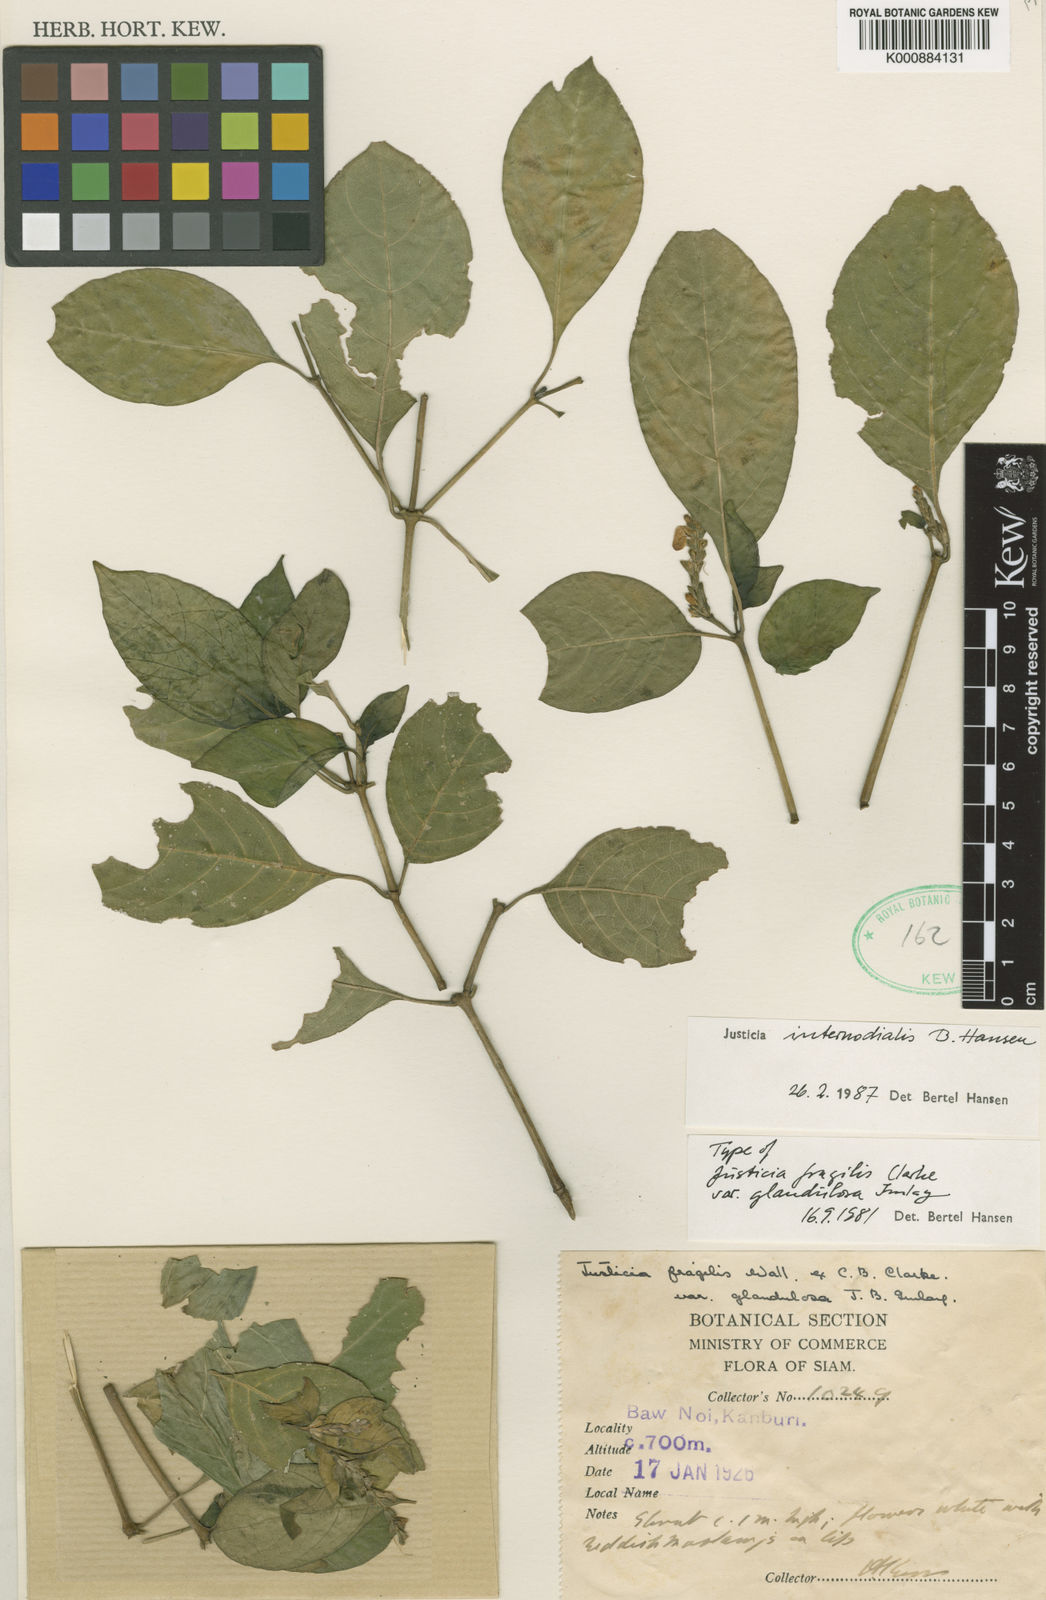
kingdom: Plantae
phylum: Tracheophyta
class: Magnoliopsida
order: Lamiales
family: Acanthaceae
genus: Justicia
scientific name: Justicia internodialis
